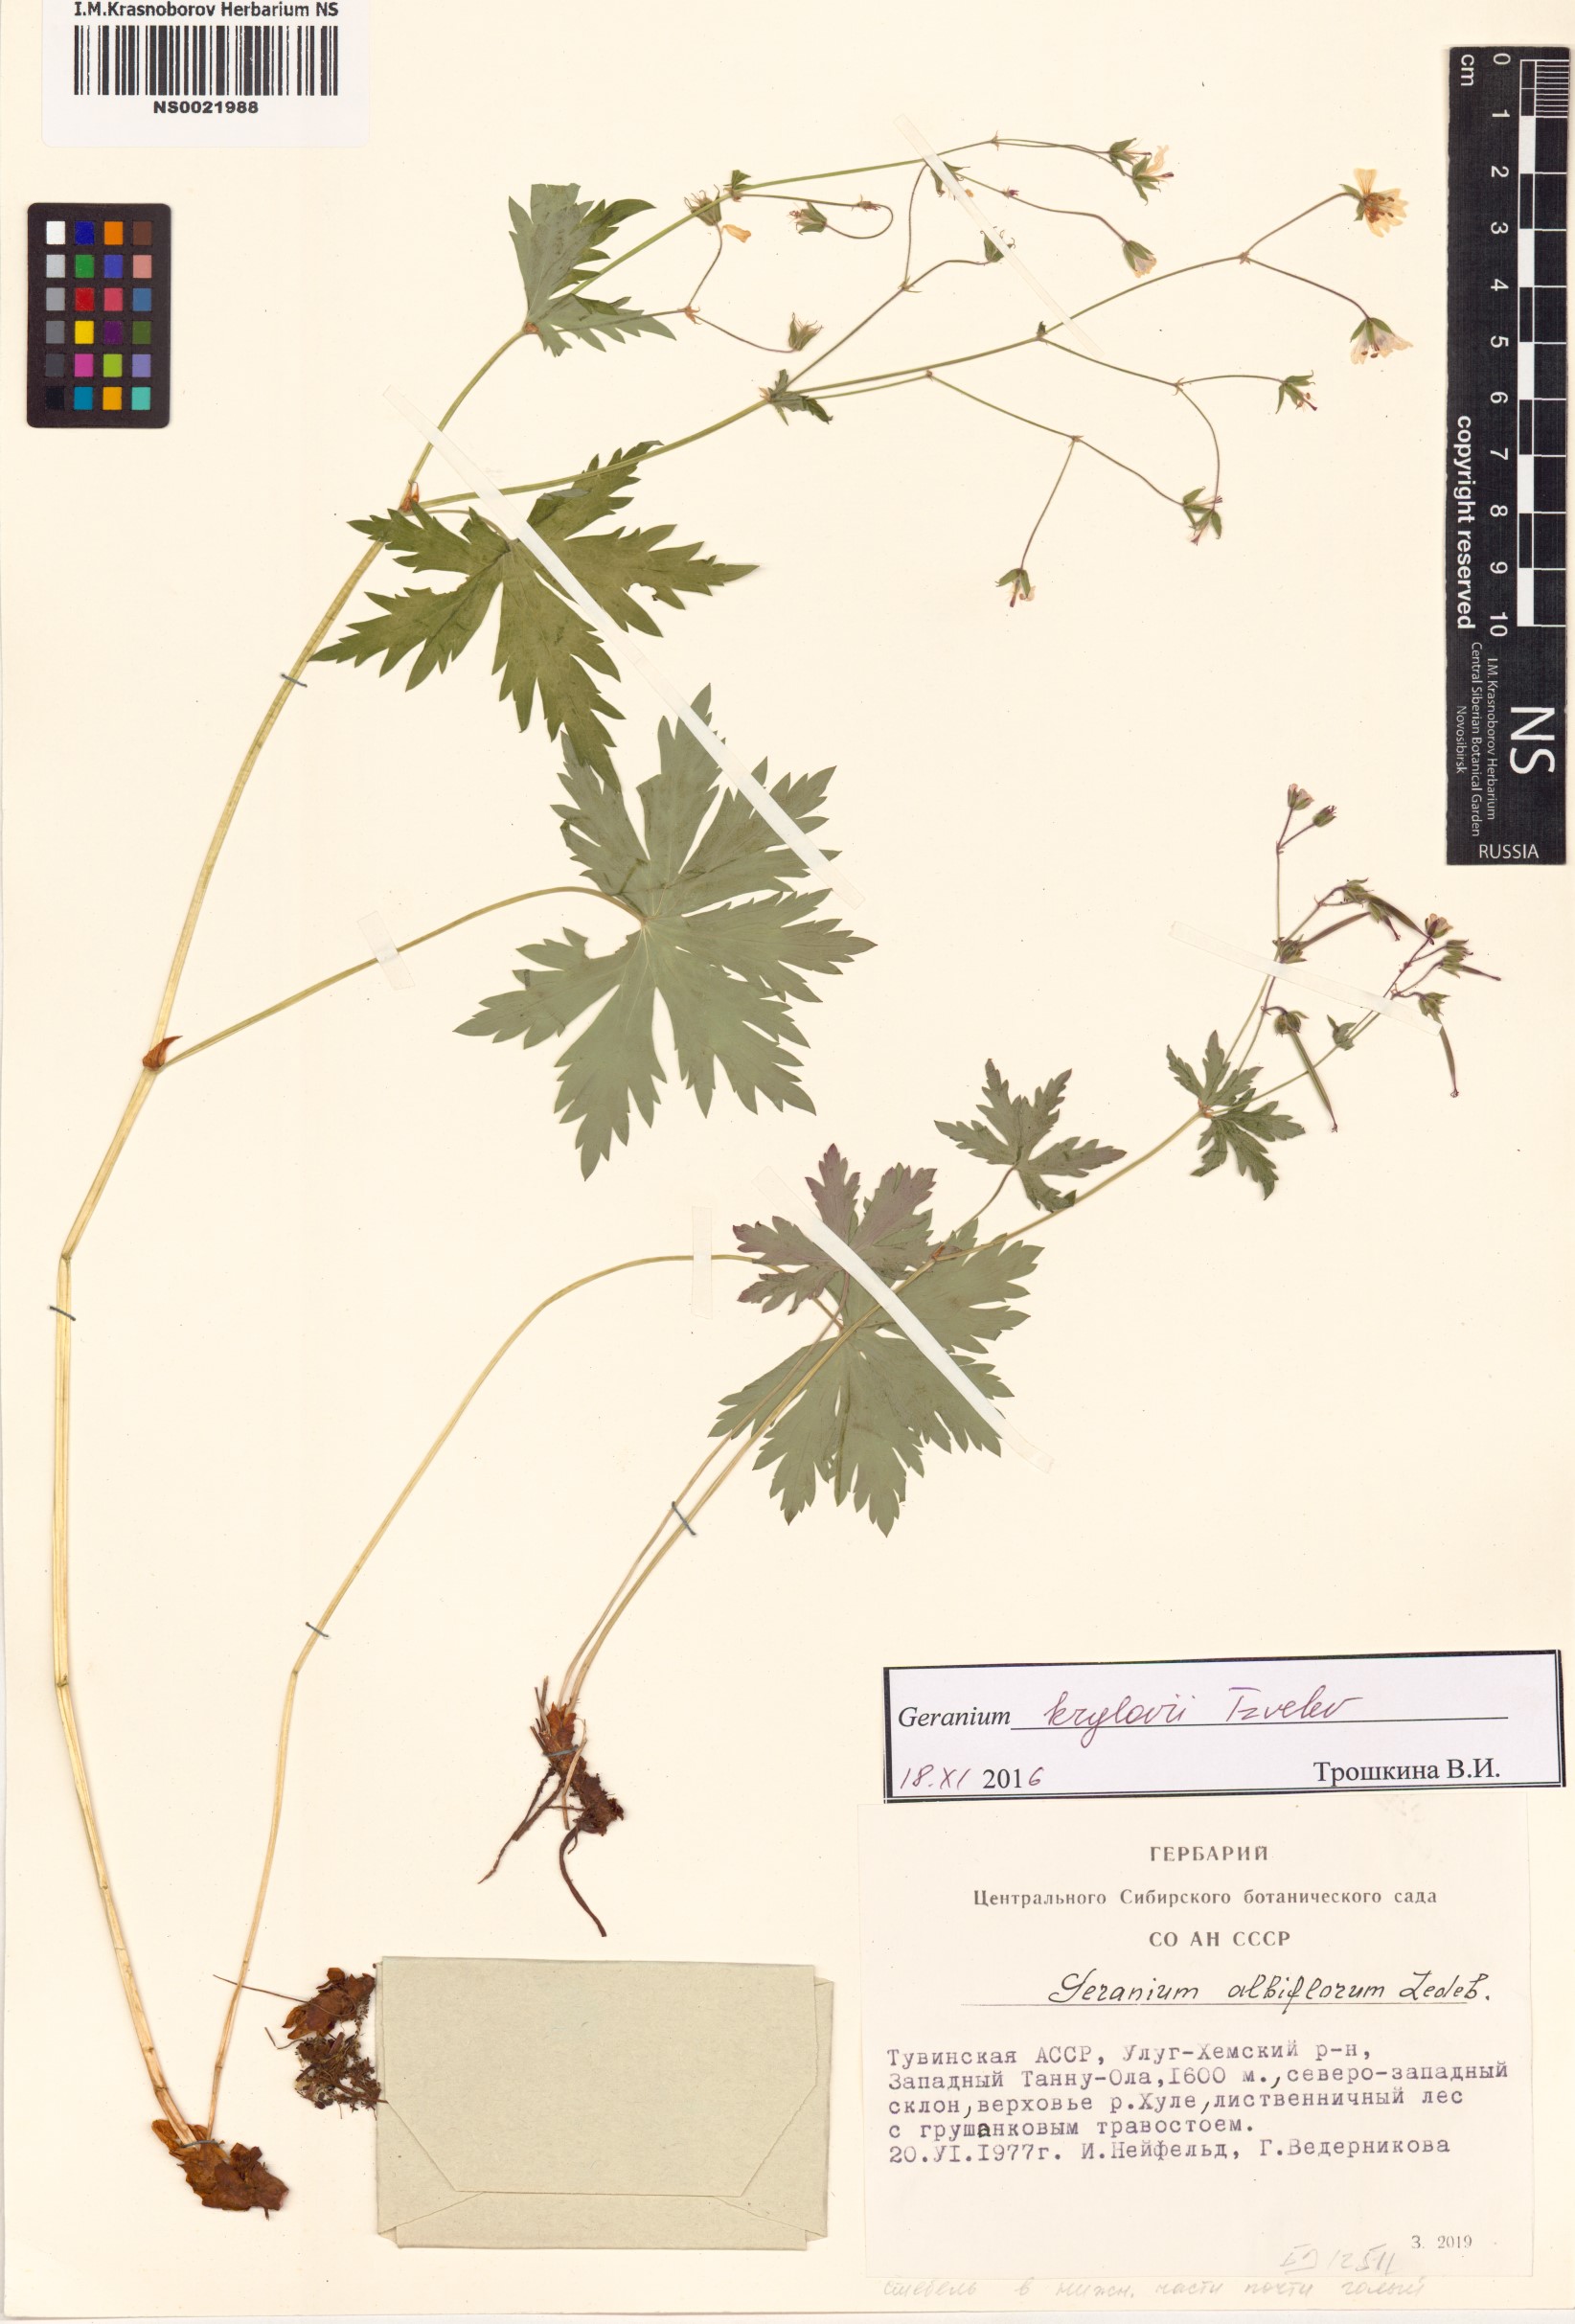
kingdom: Plantae
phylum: Tracheophyta
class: Magnoliopsida
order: Geraniales
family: Geraniaceae
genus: Geranium
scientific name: Geranium sylvaticum
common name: Wood crane's-bill
